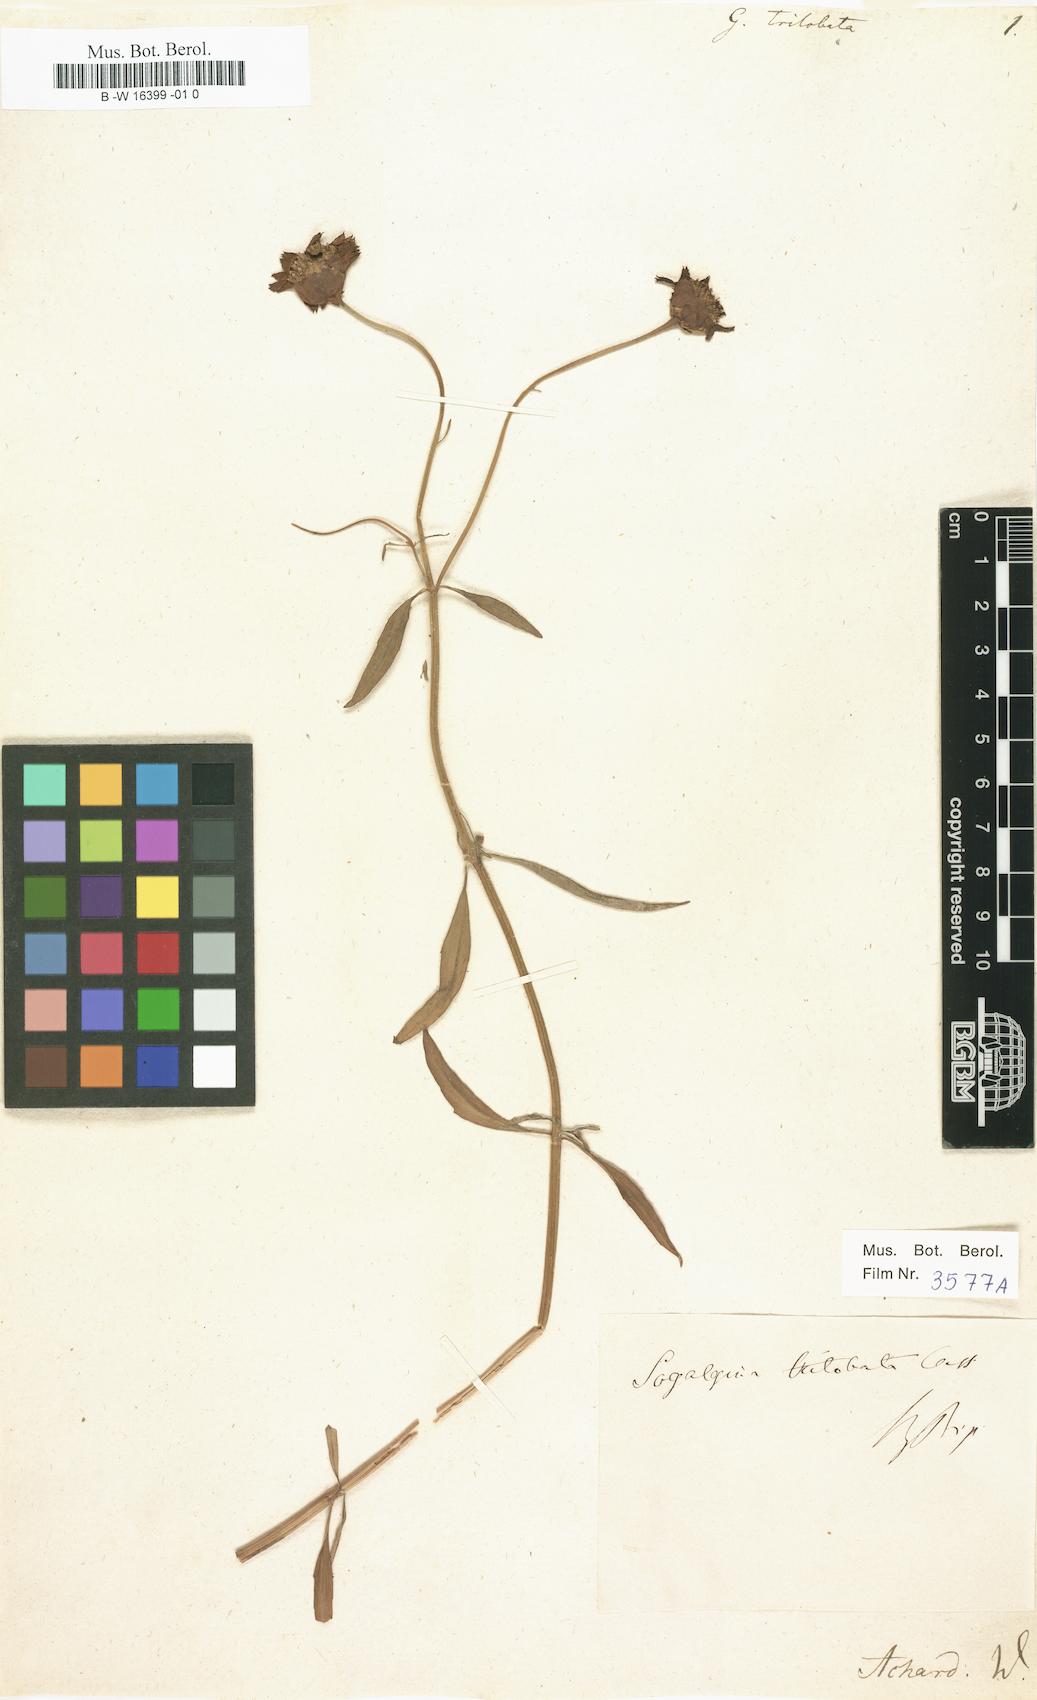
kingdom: Plantae
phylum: Tracheophyta
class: Magnoliopsida
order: Asterales
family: Asteraceae
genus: Tridax
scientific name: Tridax trilobata
